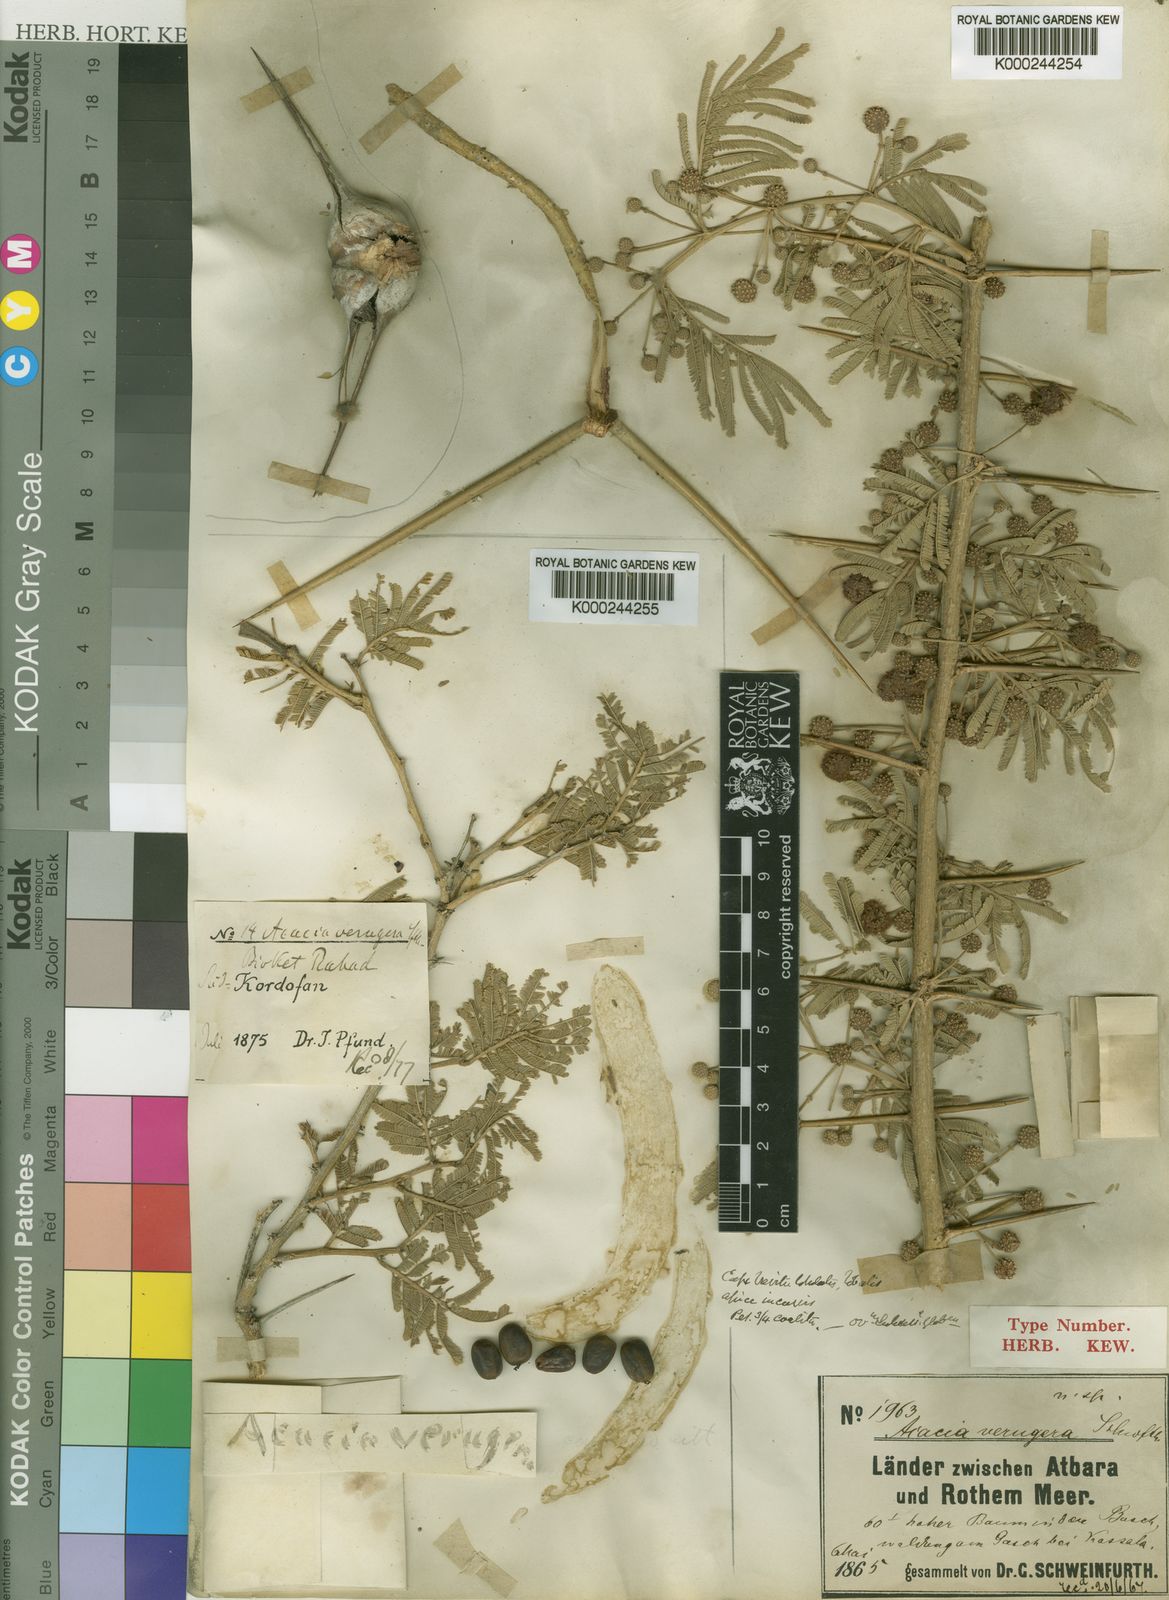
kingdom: Plantae
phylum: Tracheophyta
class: Magnoliopsida
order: Fabales
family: Fabaceae
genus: Vachellia
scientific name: Vachellia sieberiana
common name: Flat-topped thorn
